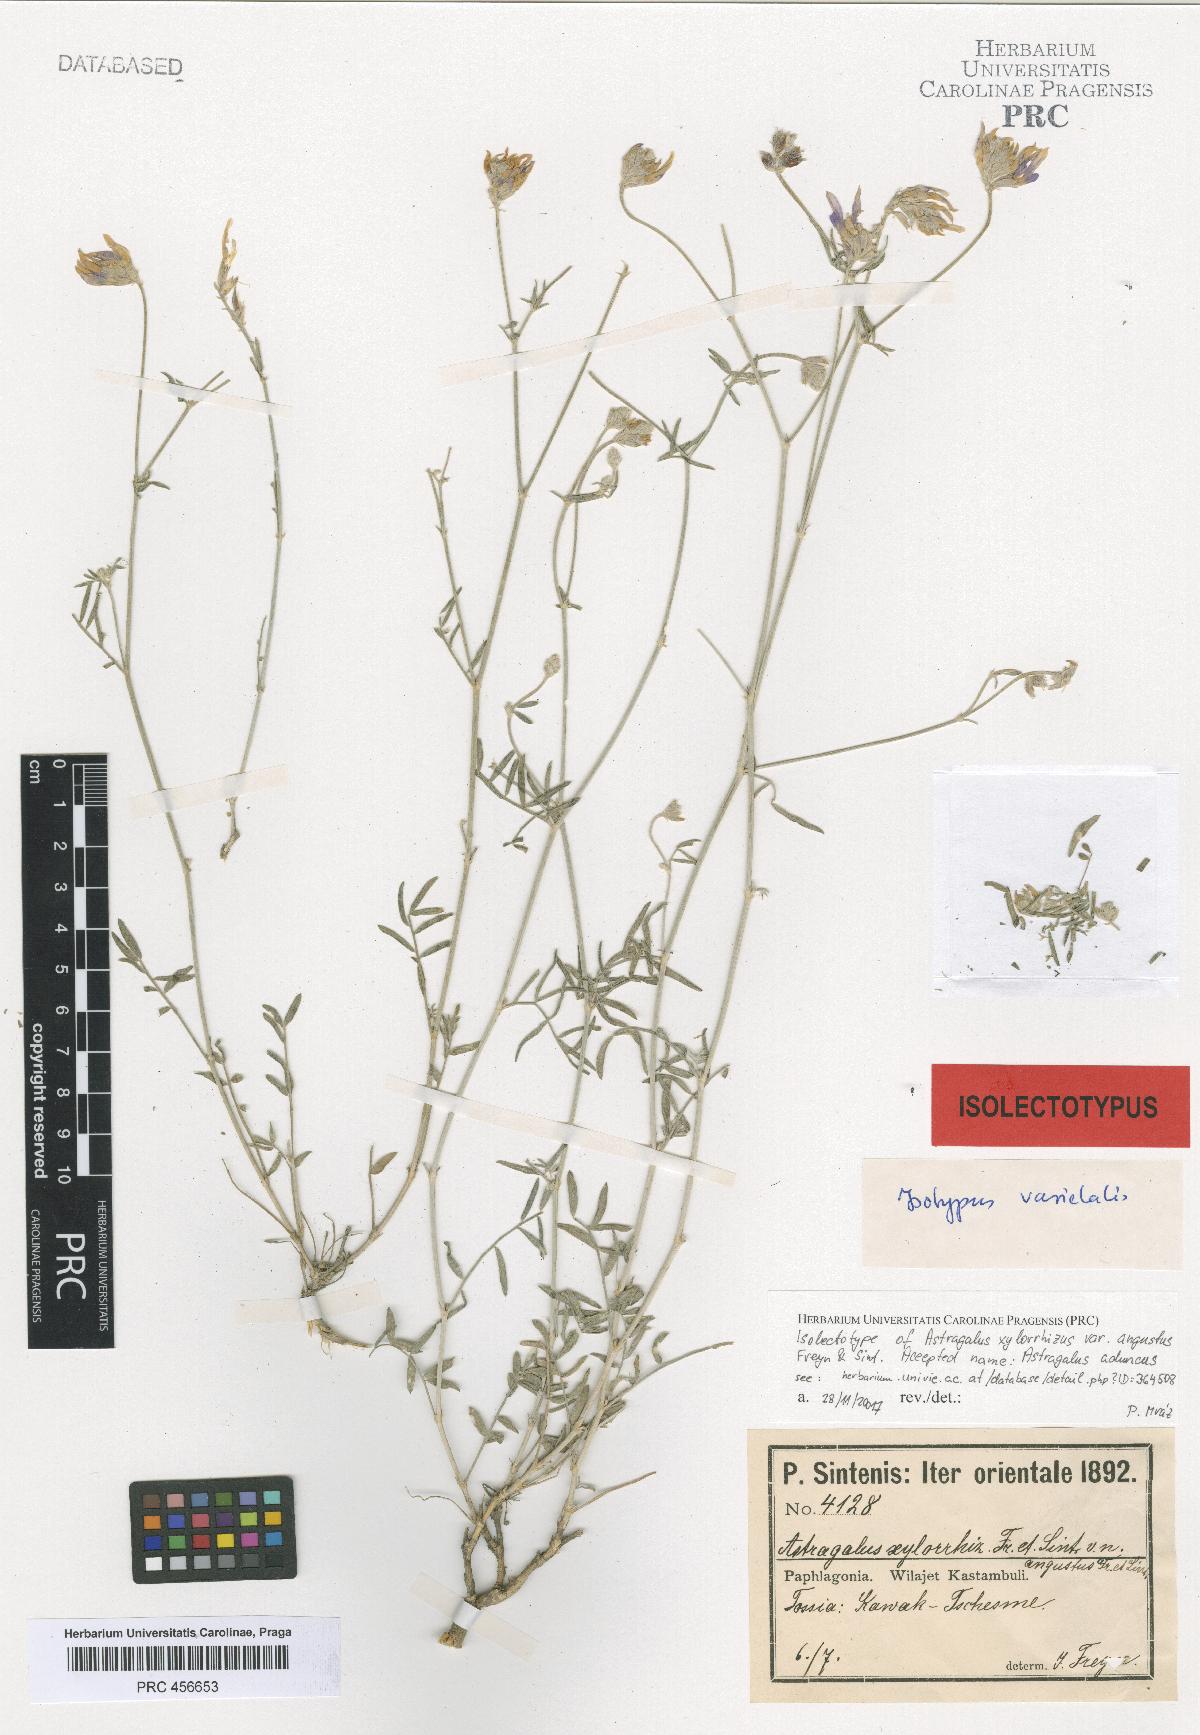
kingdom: Plantae
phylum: Tracheophyta
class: Magnoliopsida
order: Fabales
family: Fabaceae
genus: Astragalus
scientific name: Astragalus aduncus
